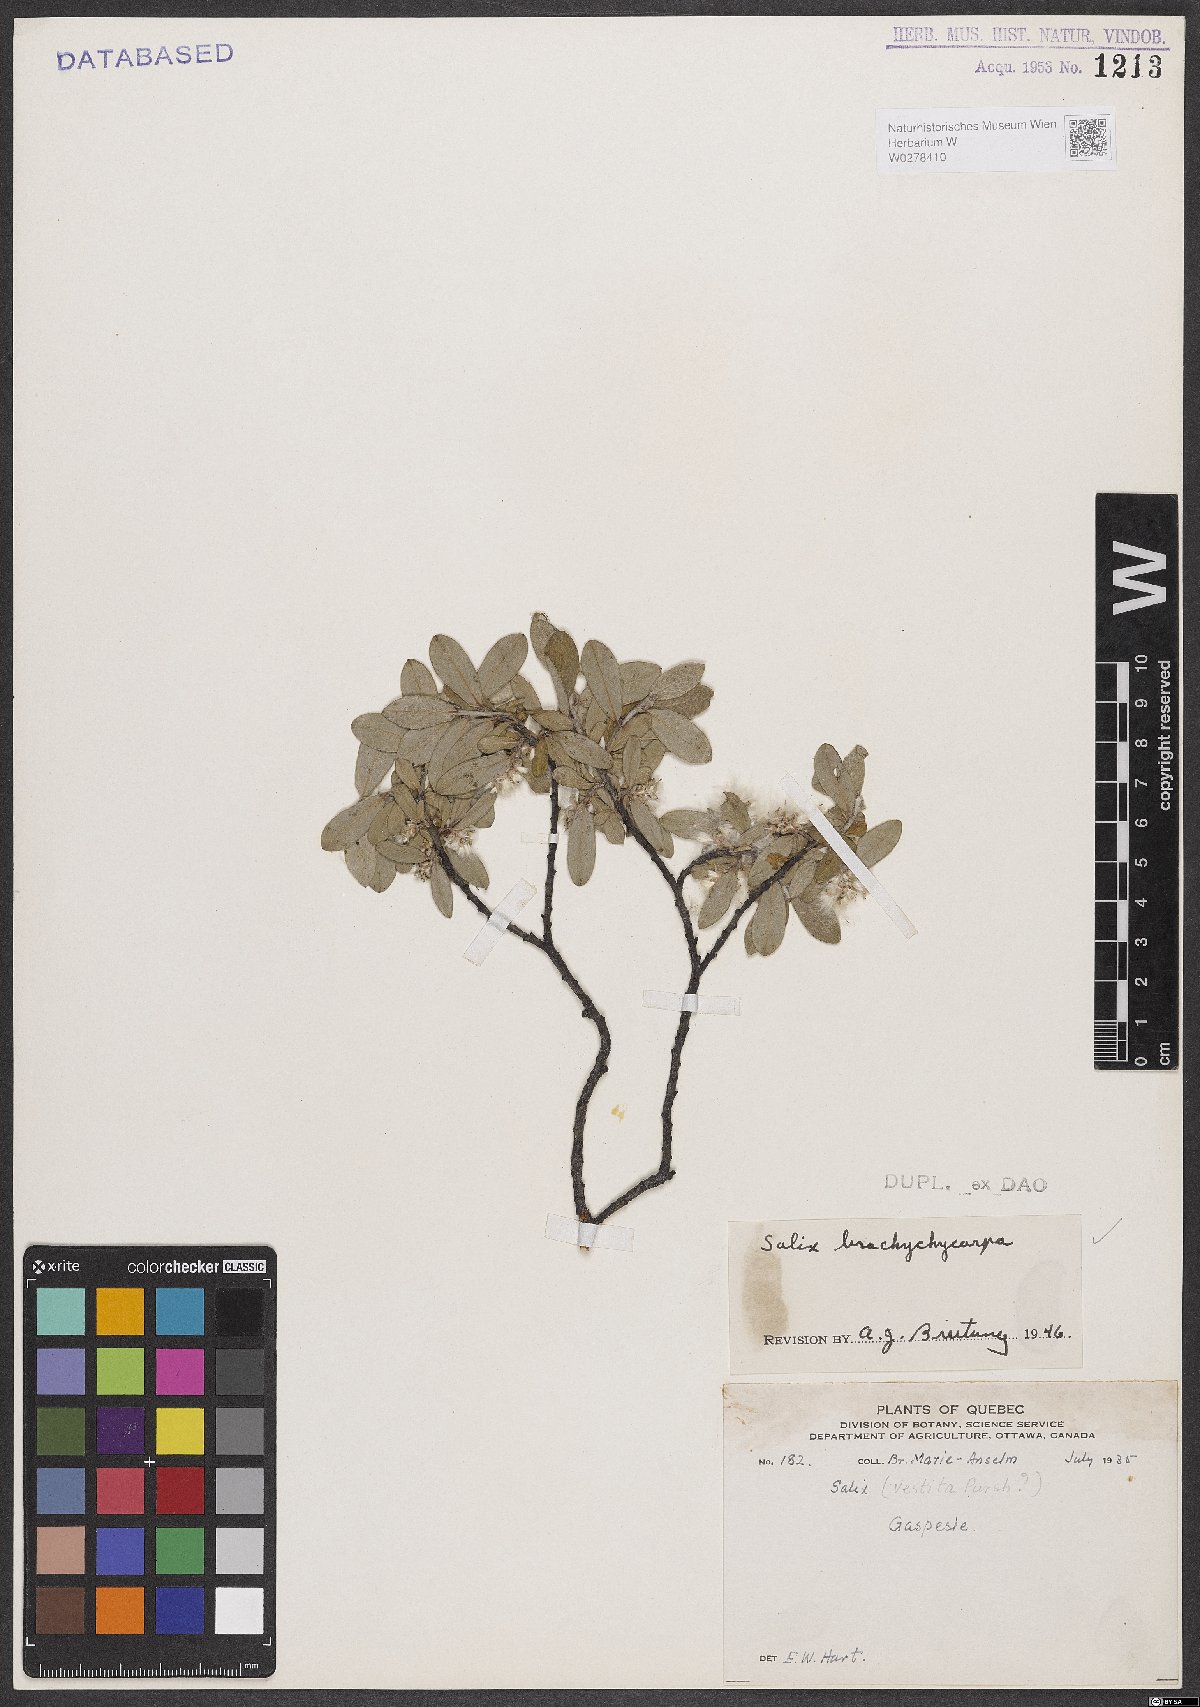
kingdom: Plantae
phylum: Tracheophyta
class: Magnoliopsida
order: Malpighiales
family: Salicaceae
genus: Salix
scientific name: Salix brachycarpa
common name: Barren-ground willow
